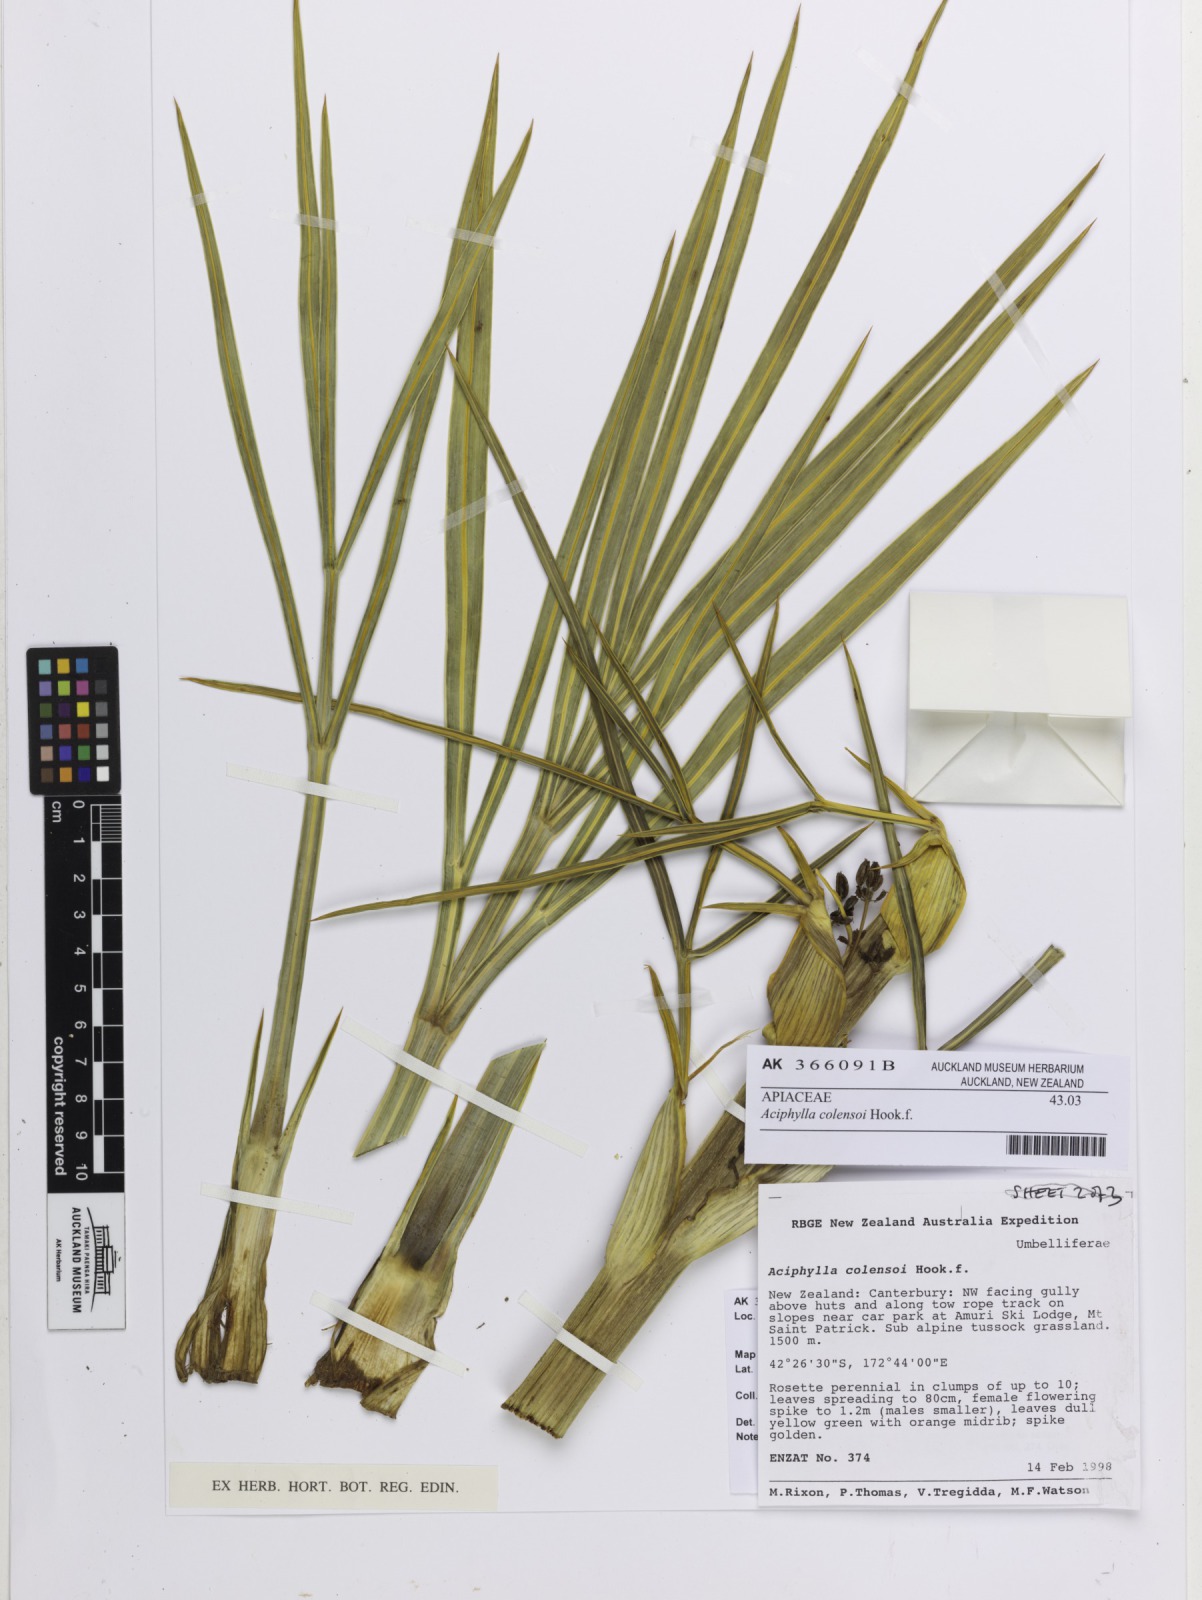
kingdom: Plantae
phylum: Tracheophyta
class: Magnoliopsida
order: Apiales
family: Apiaceae
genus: Aciphylla
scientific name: Aciphylla colensoi
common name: Colenso's spaniard
